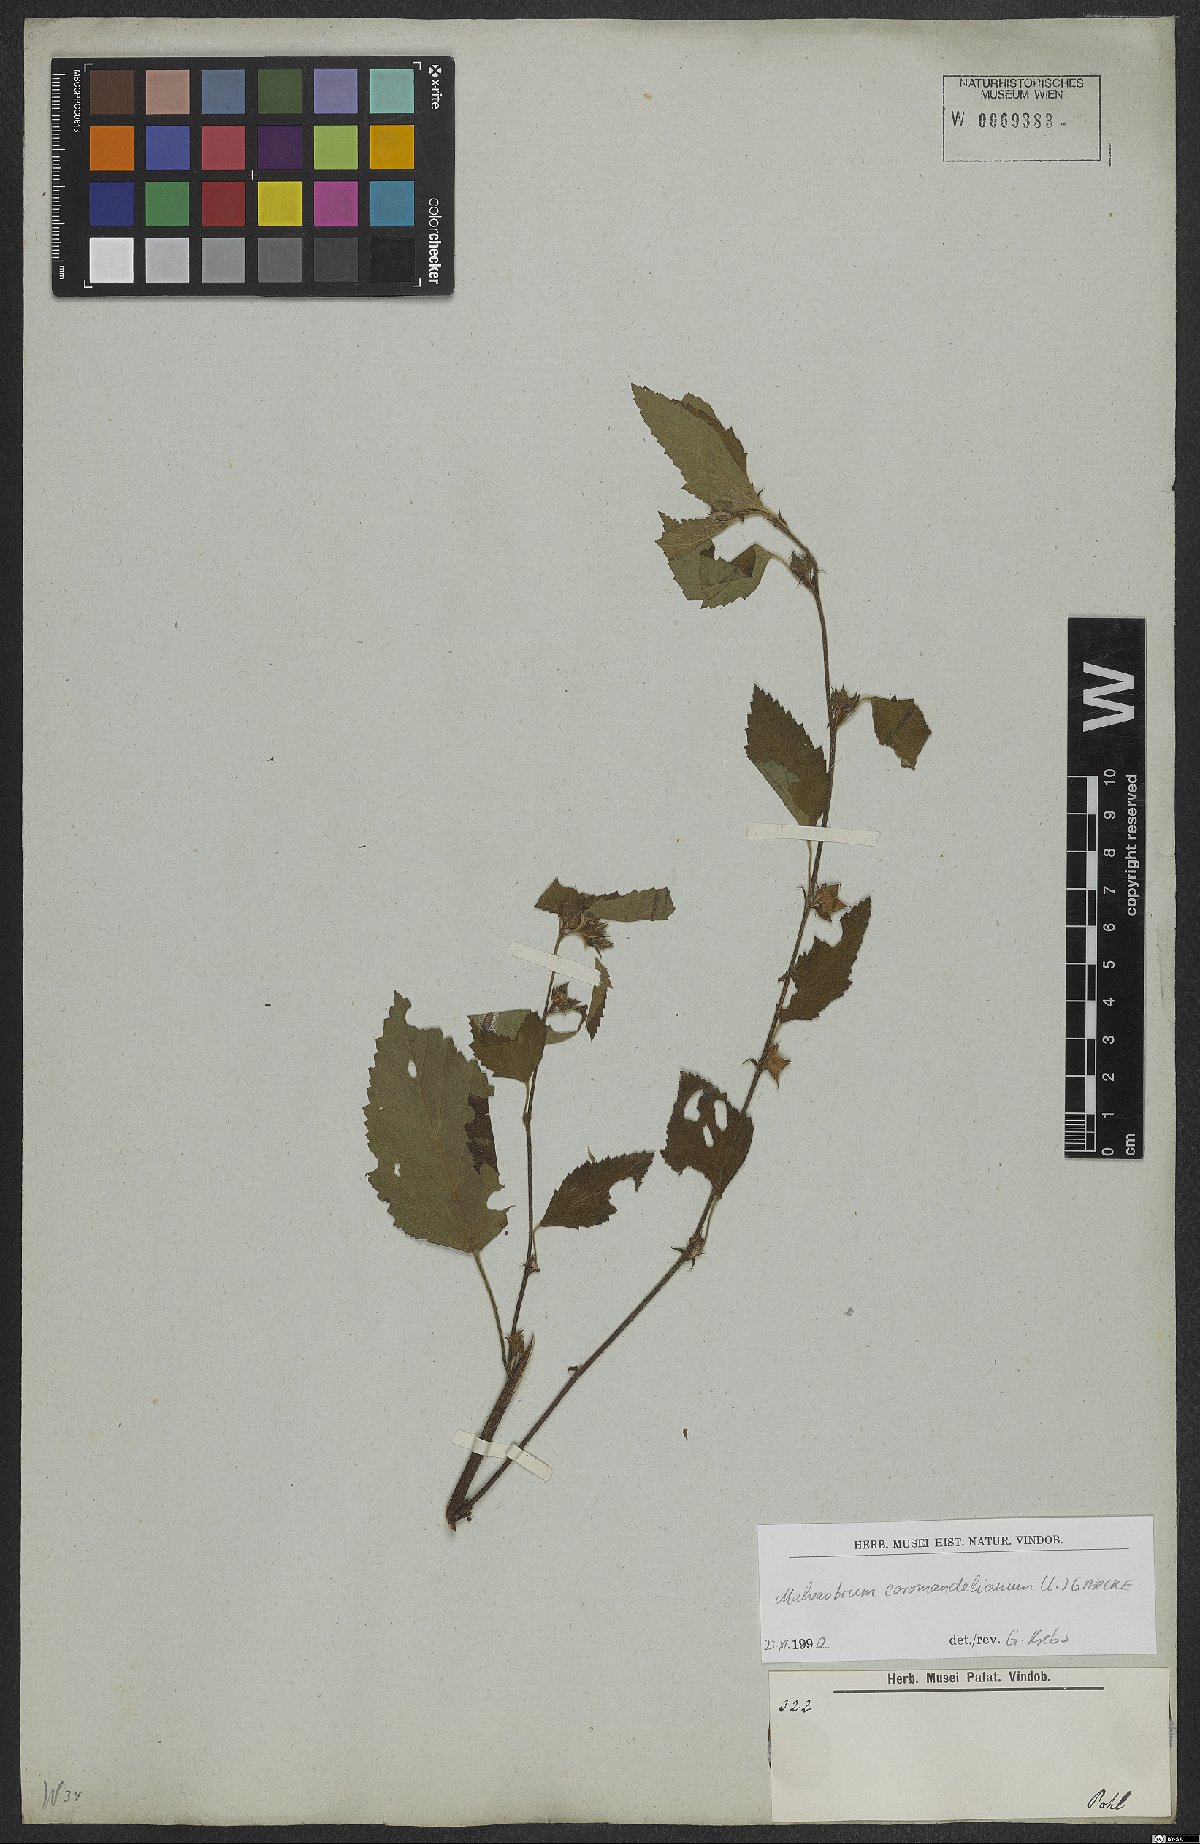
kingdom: Plantae
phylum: Tracheophyta
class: Magnoliopsida
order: Malvales
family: Malvaceae
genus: Malvastrum
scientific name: Malvastrum coromandelianum
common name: Threelobe false mallow
